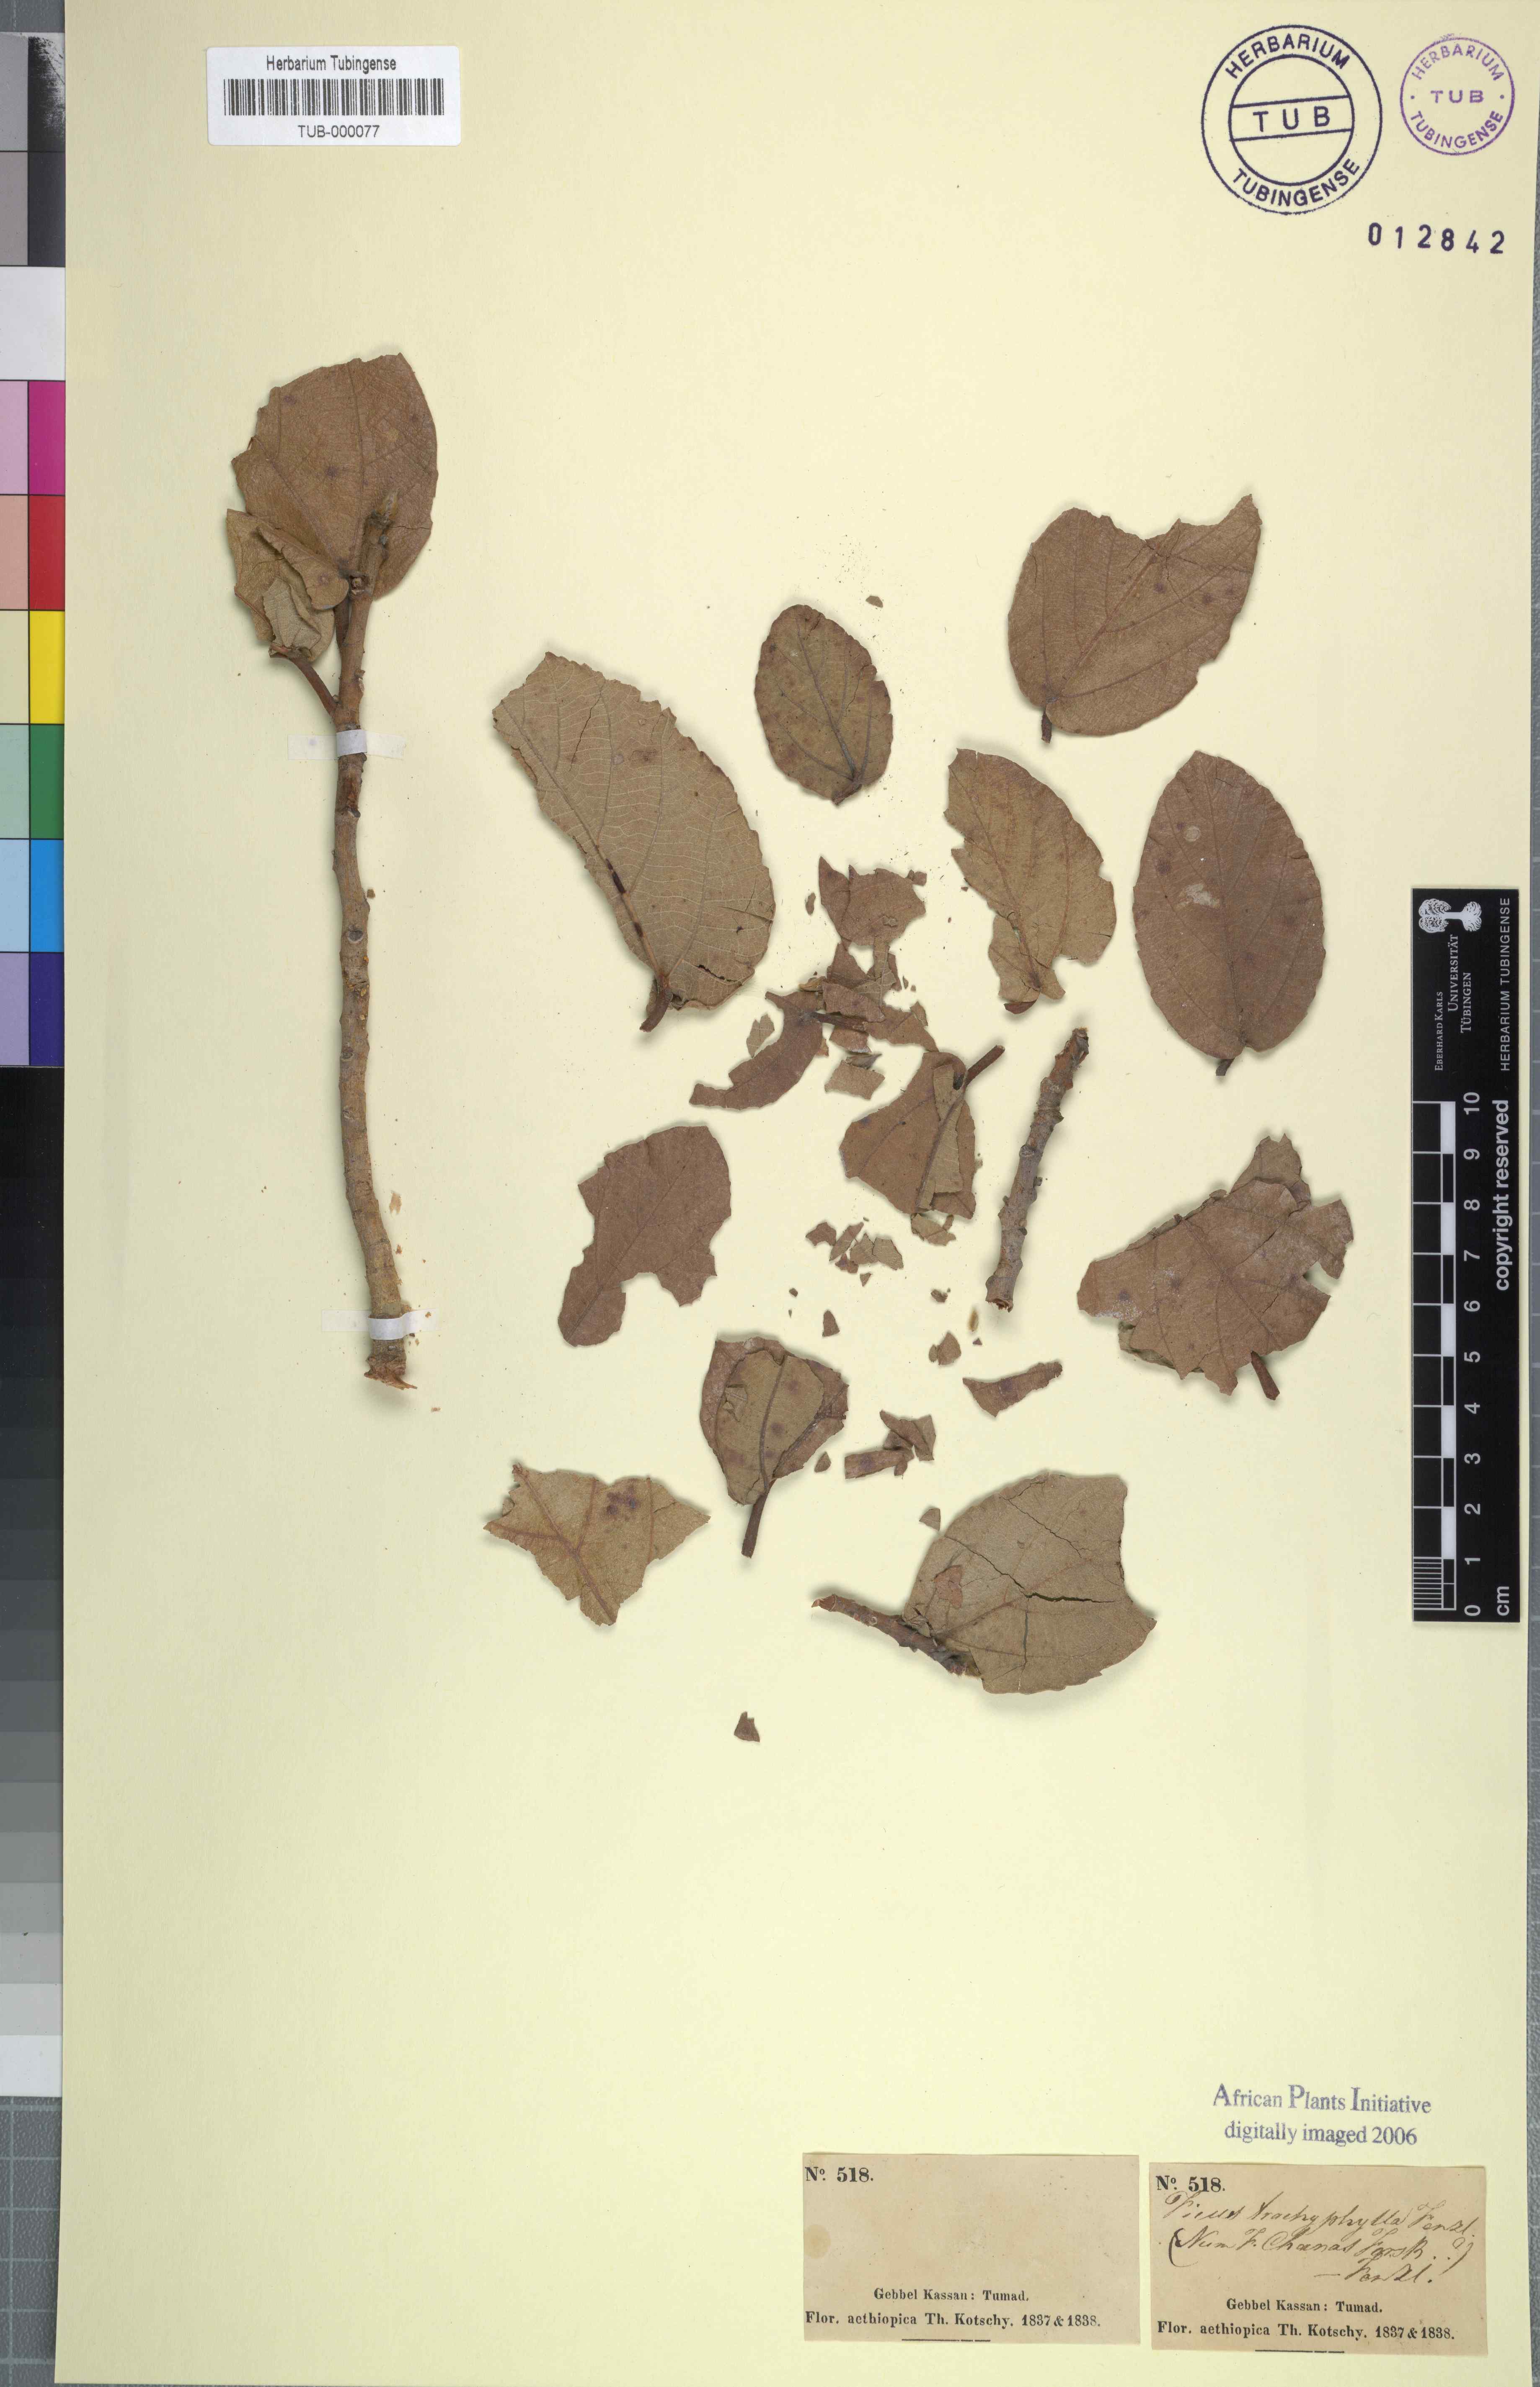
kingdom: Plantae
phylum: Tracheophyta
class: Magnoliopsida
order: Rosales
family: Moraceae
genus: Ficus
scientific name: Ficus sycomorus
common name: Sycomore
